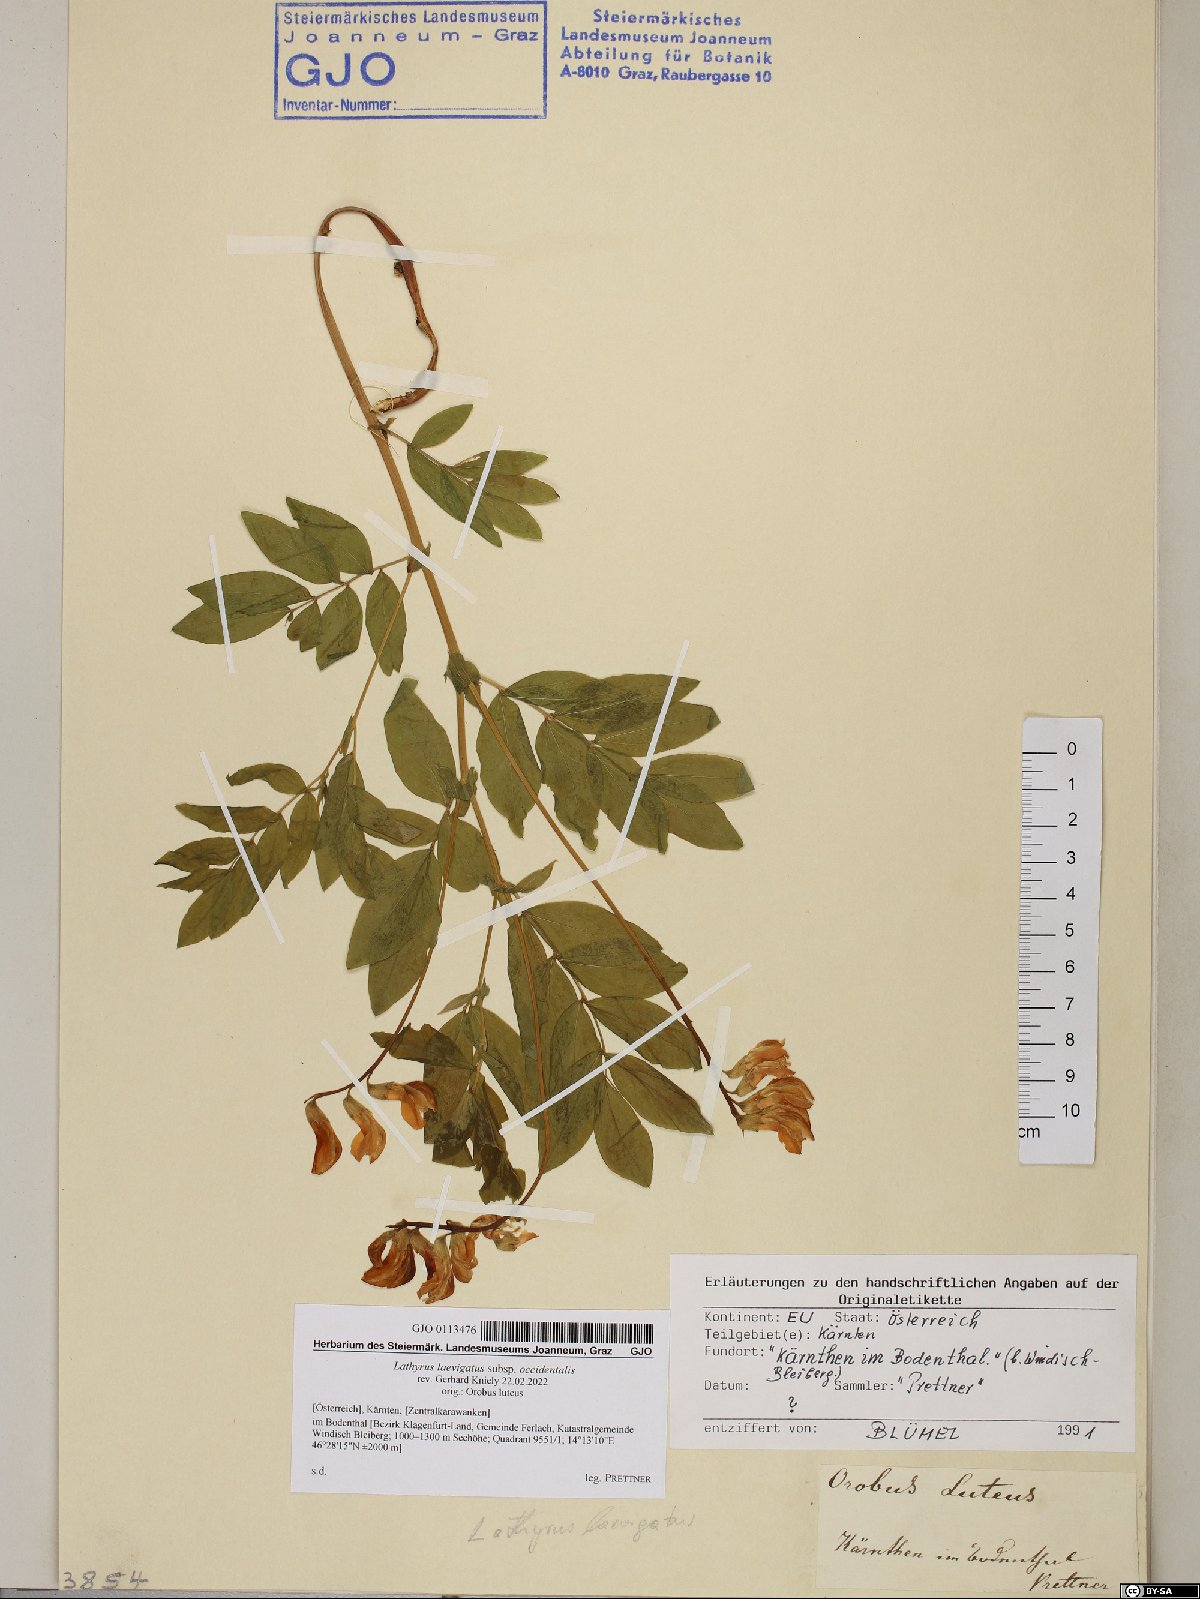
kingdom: Plantae
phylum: Tracheophyta
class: Magnoliopsida
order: Fabales
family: Fabaceae
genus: Lathyrus
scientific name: Lathyrus laevigatus
